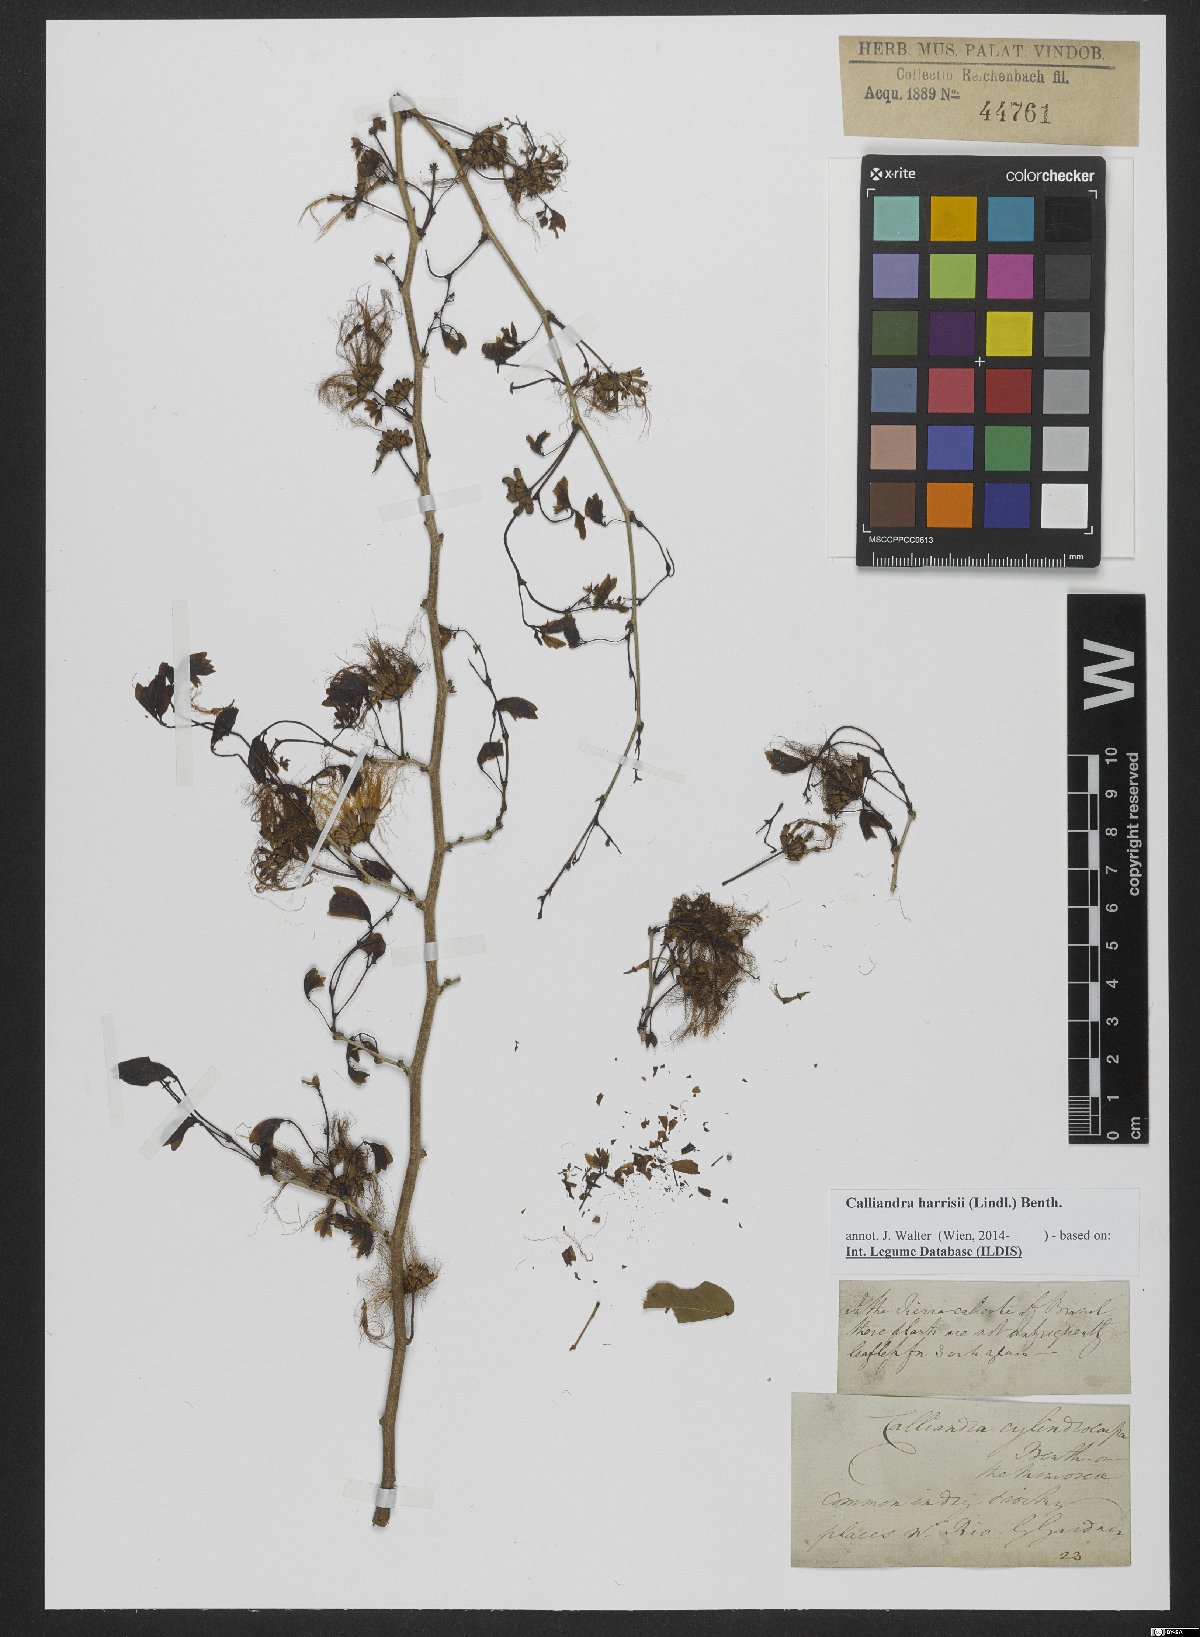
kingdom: Plantae
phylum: Tracheophyta
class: Magnoliopsida
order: Fabales
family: Fabaceae
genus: Calliandra
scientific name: Calliandra depauperata
